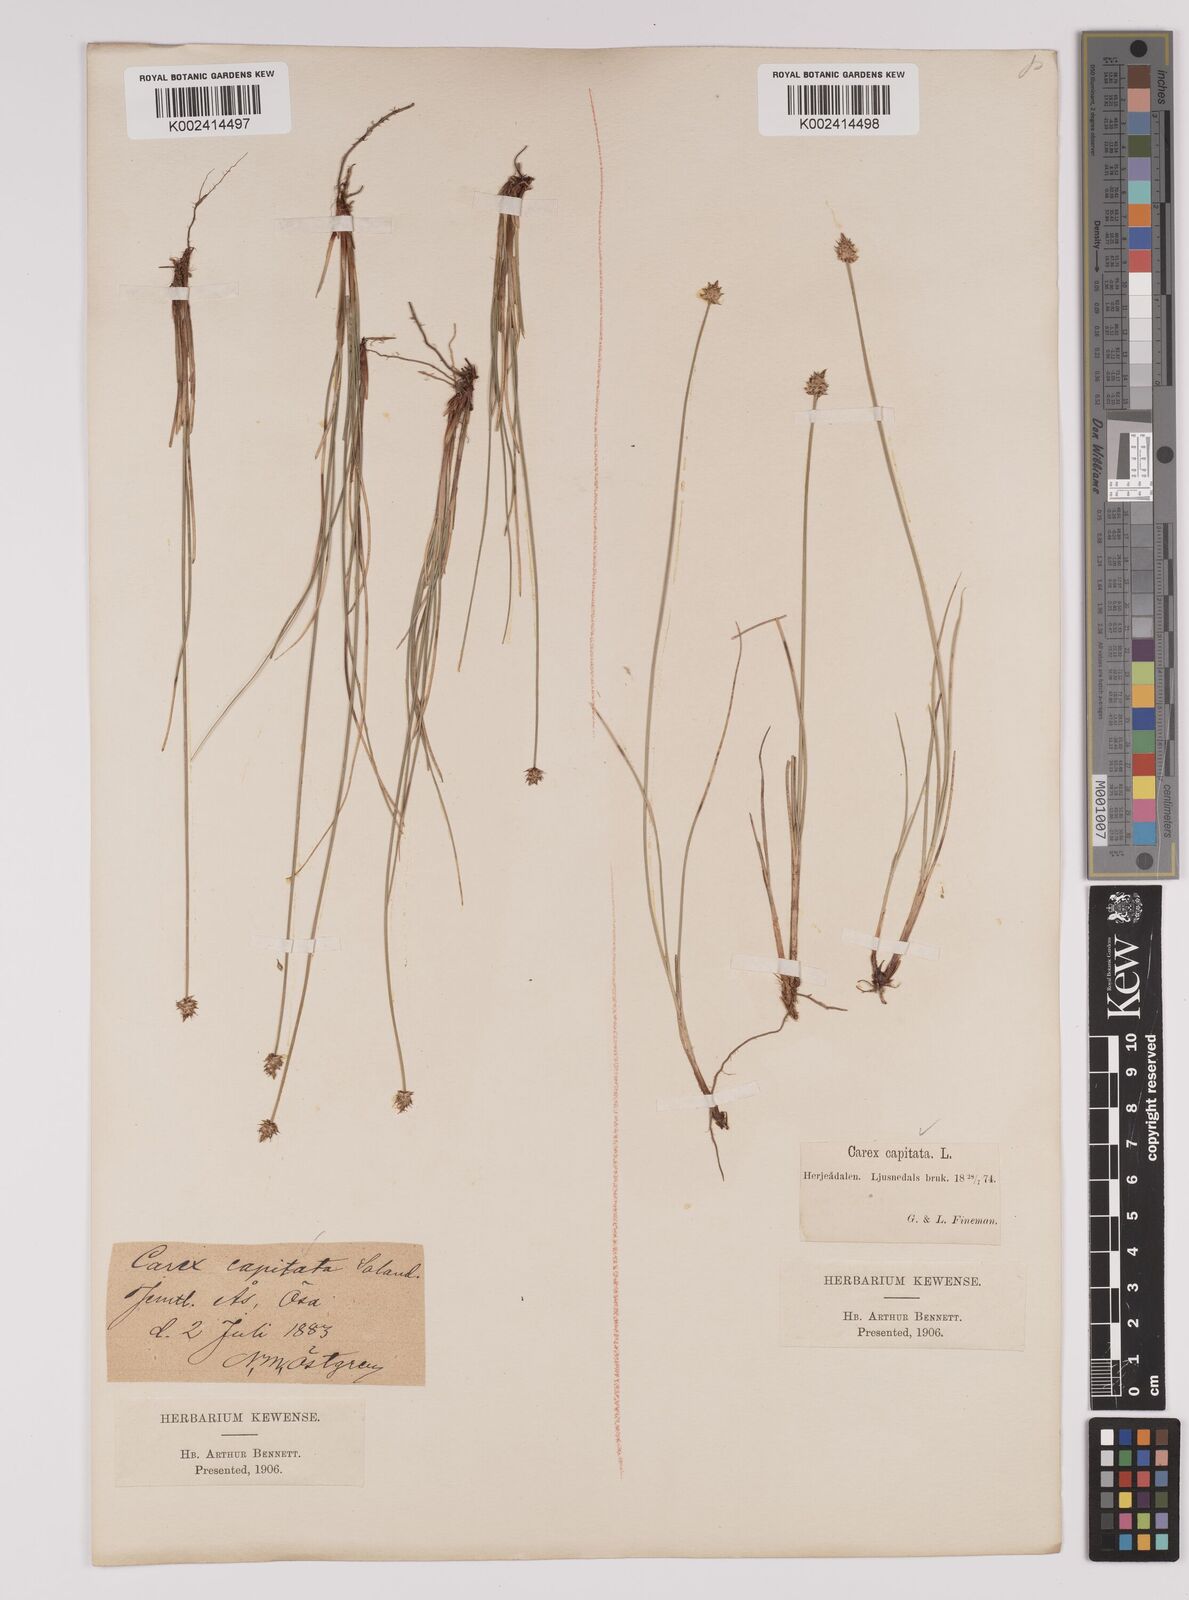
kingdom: Plantae
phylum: Tracheophyta
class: Liliopsida
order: Poales
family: Cyperaceae
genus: Carex
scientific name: Carex capitata
